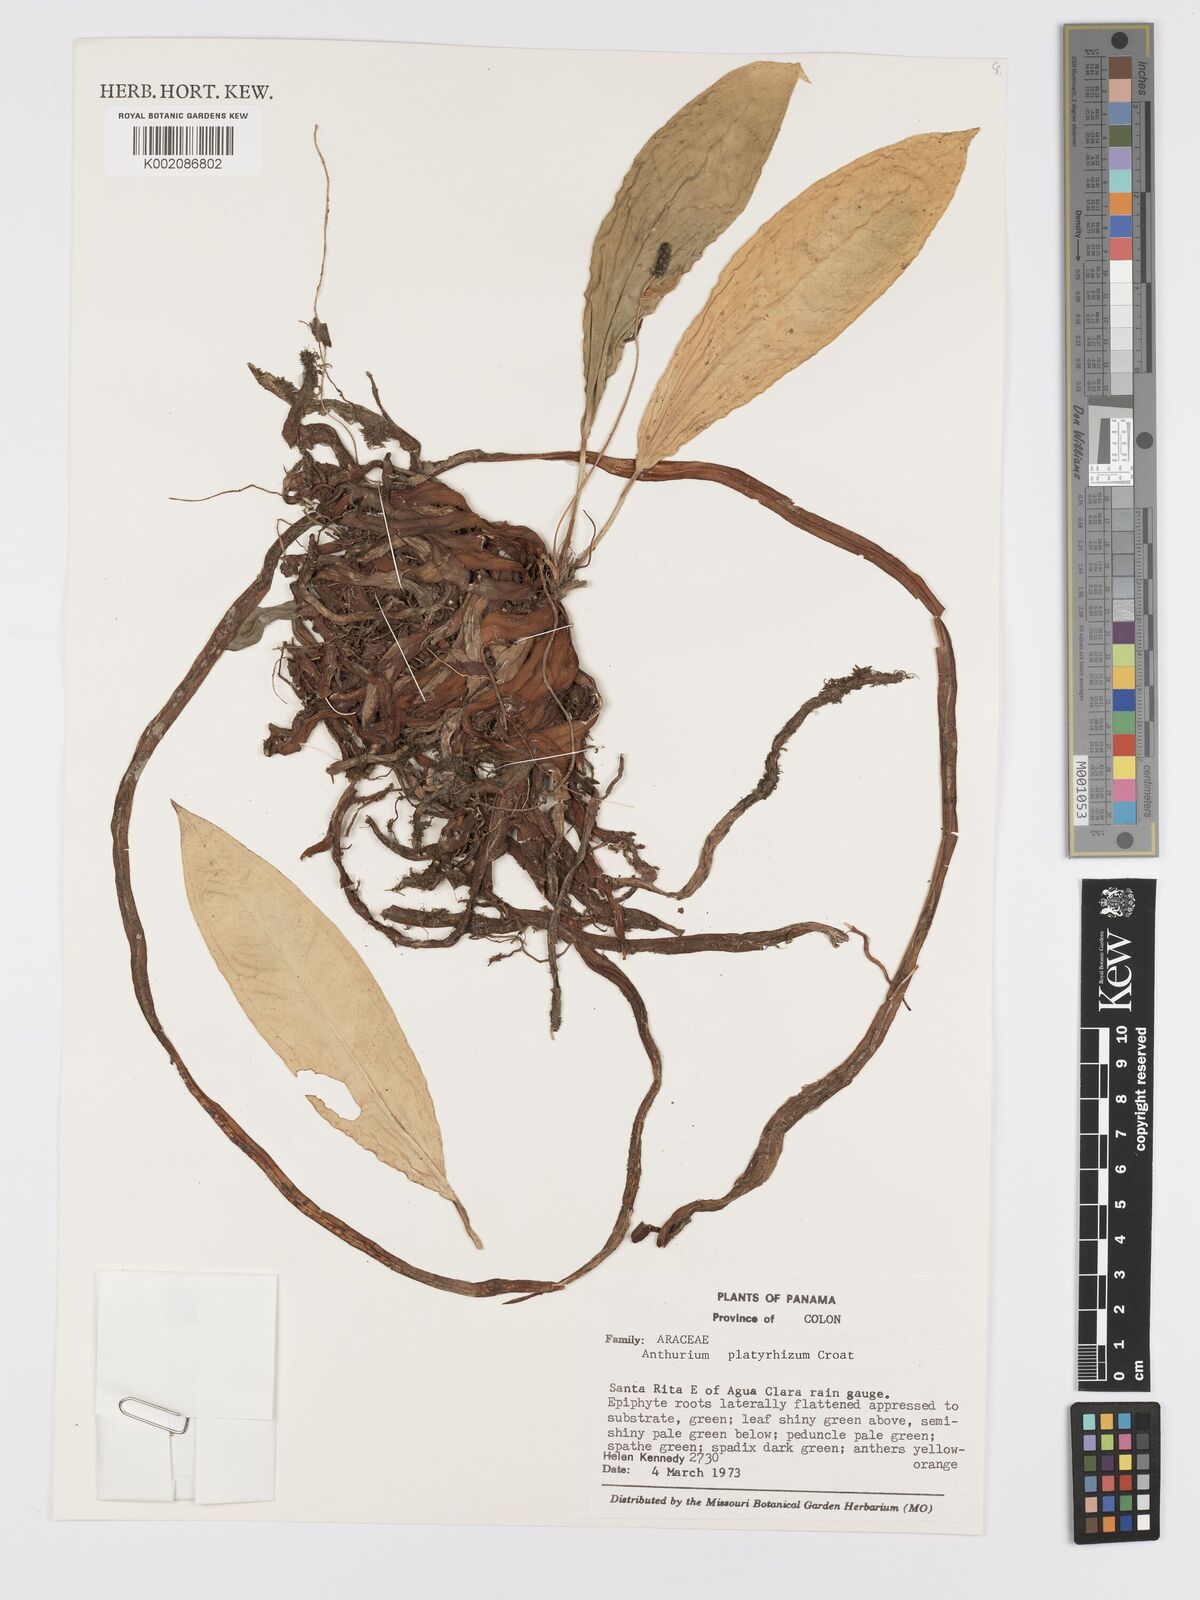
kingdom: Plantae
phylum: Tracheophyta
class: Liliopsida
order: Alismatales
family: Araceae
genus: Anthurium
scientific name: Anthurium platyrhizum
